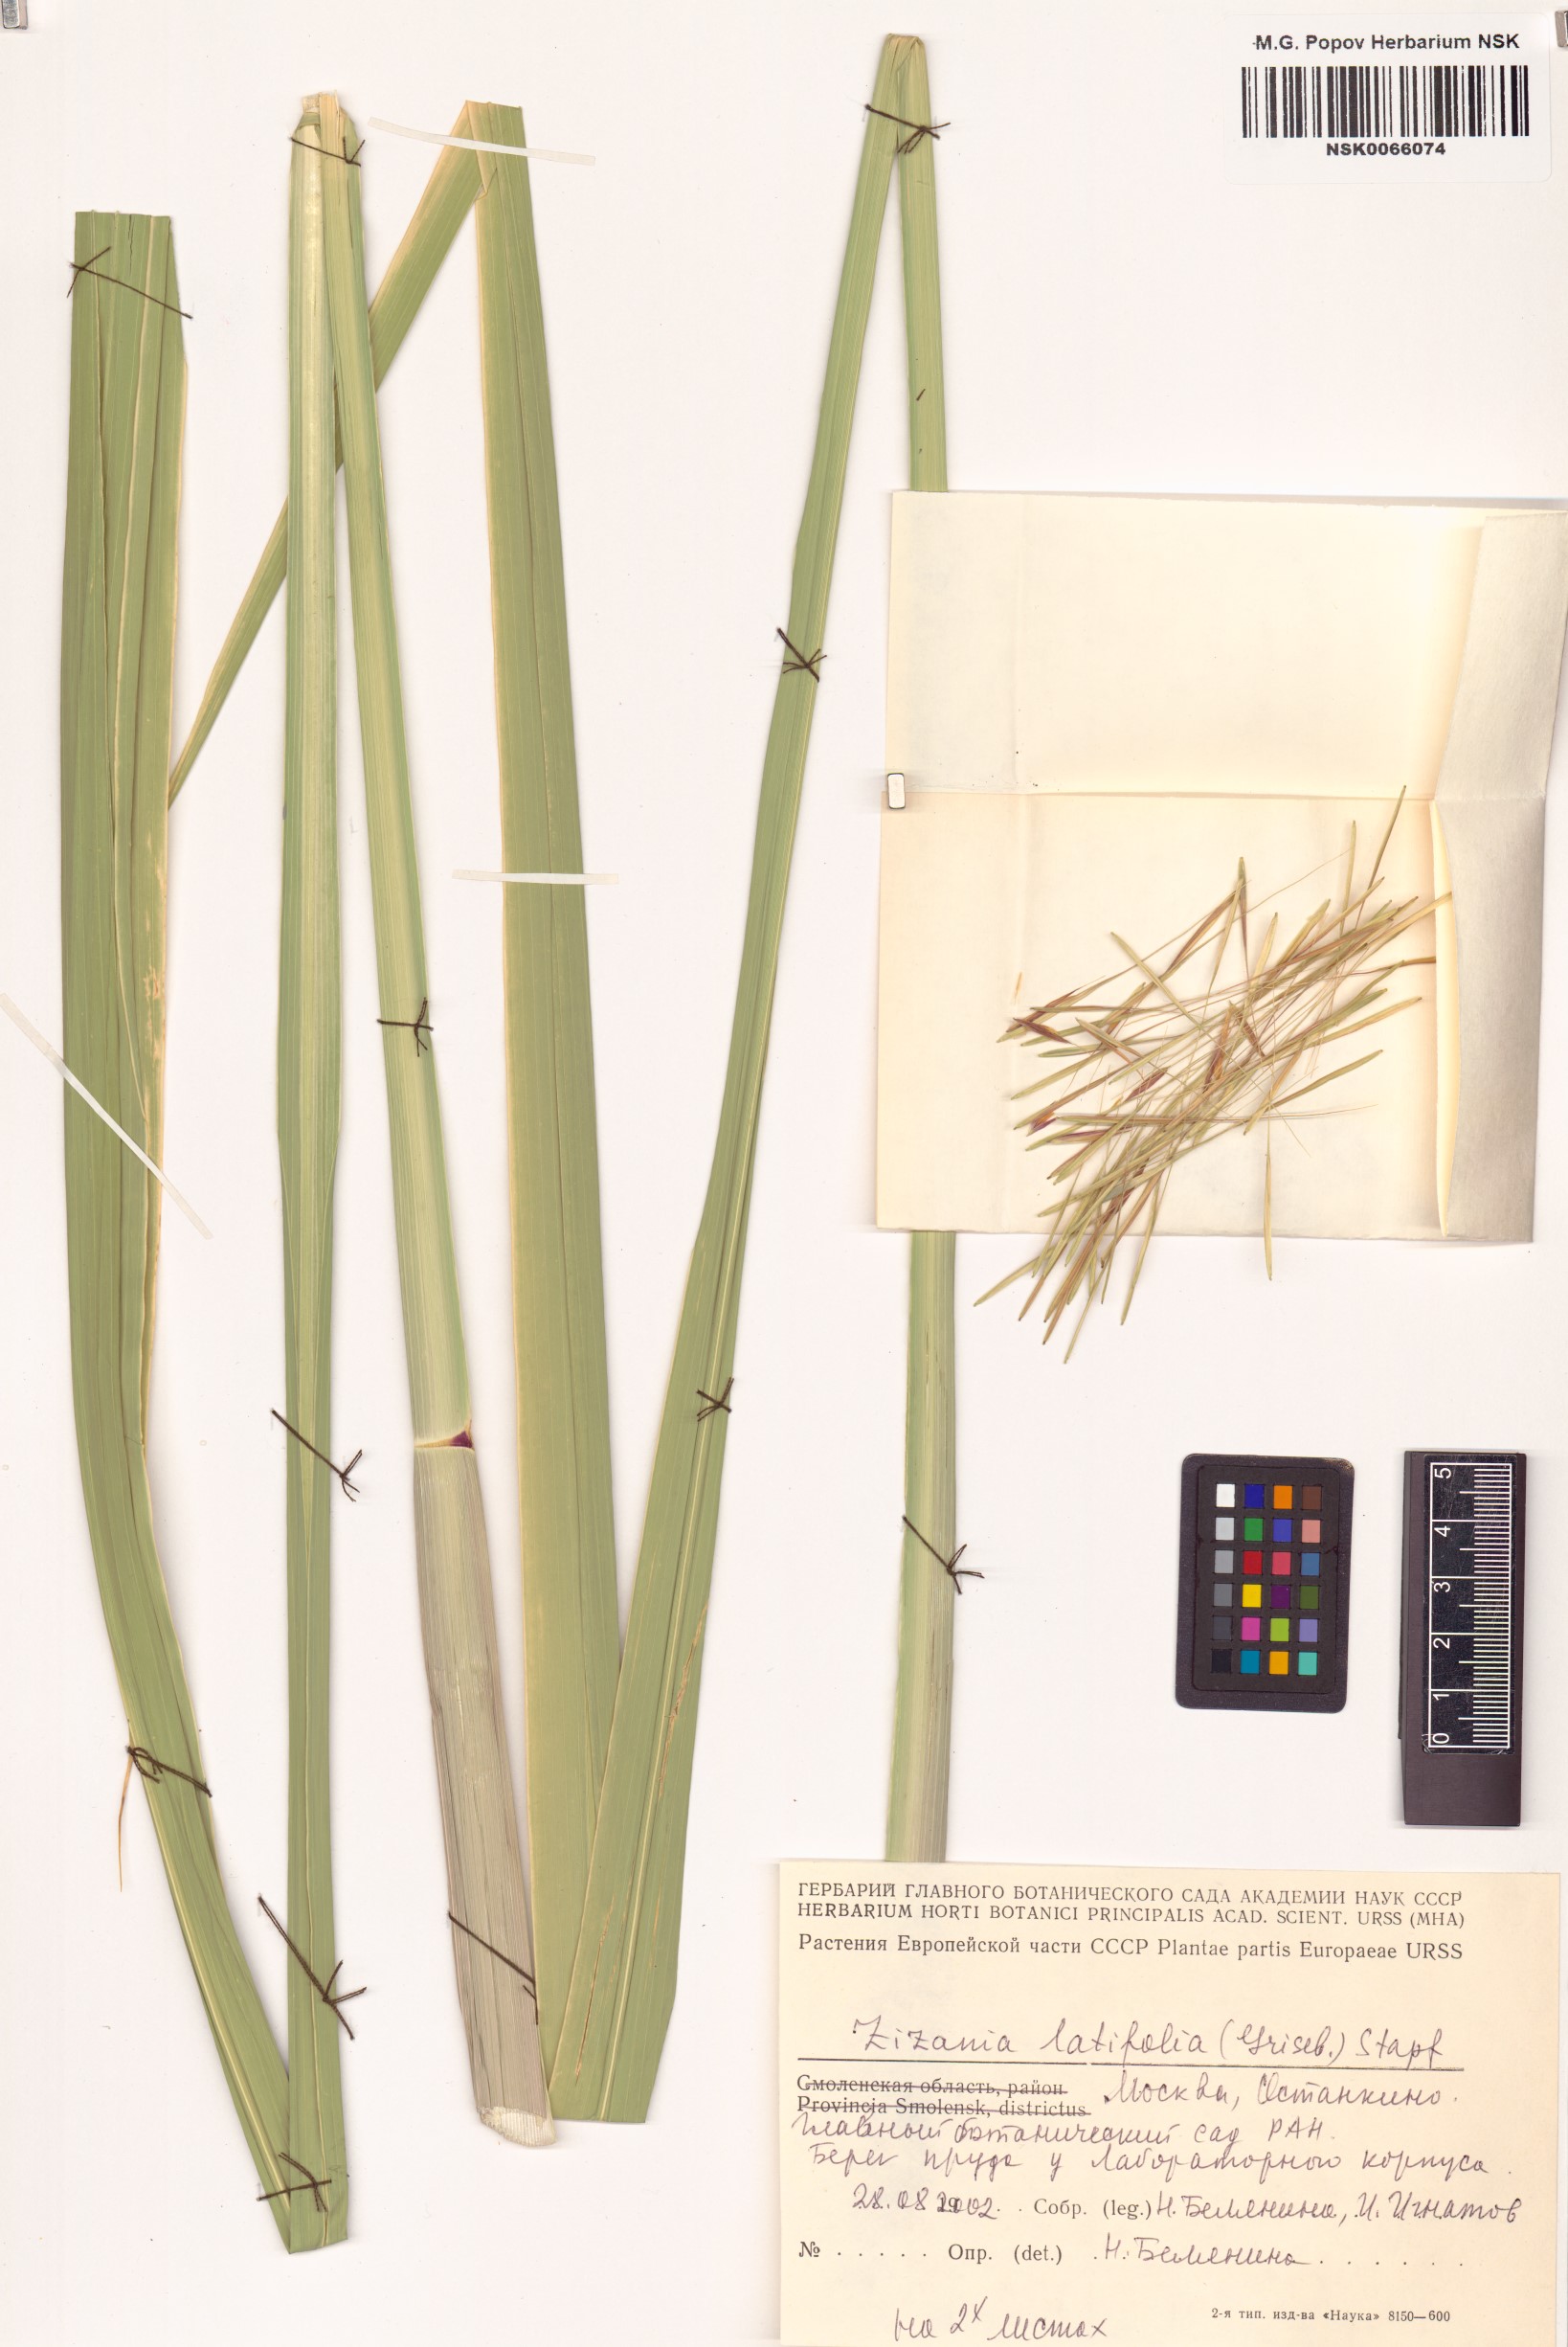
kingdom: Plantae
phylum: Tracheophyta
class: Liliopsida
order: Poales
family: Poaceae
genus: Zizania
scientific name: Zizania latifolia
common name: Manchurian wildrice
